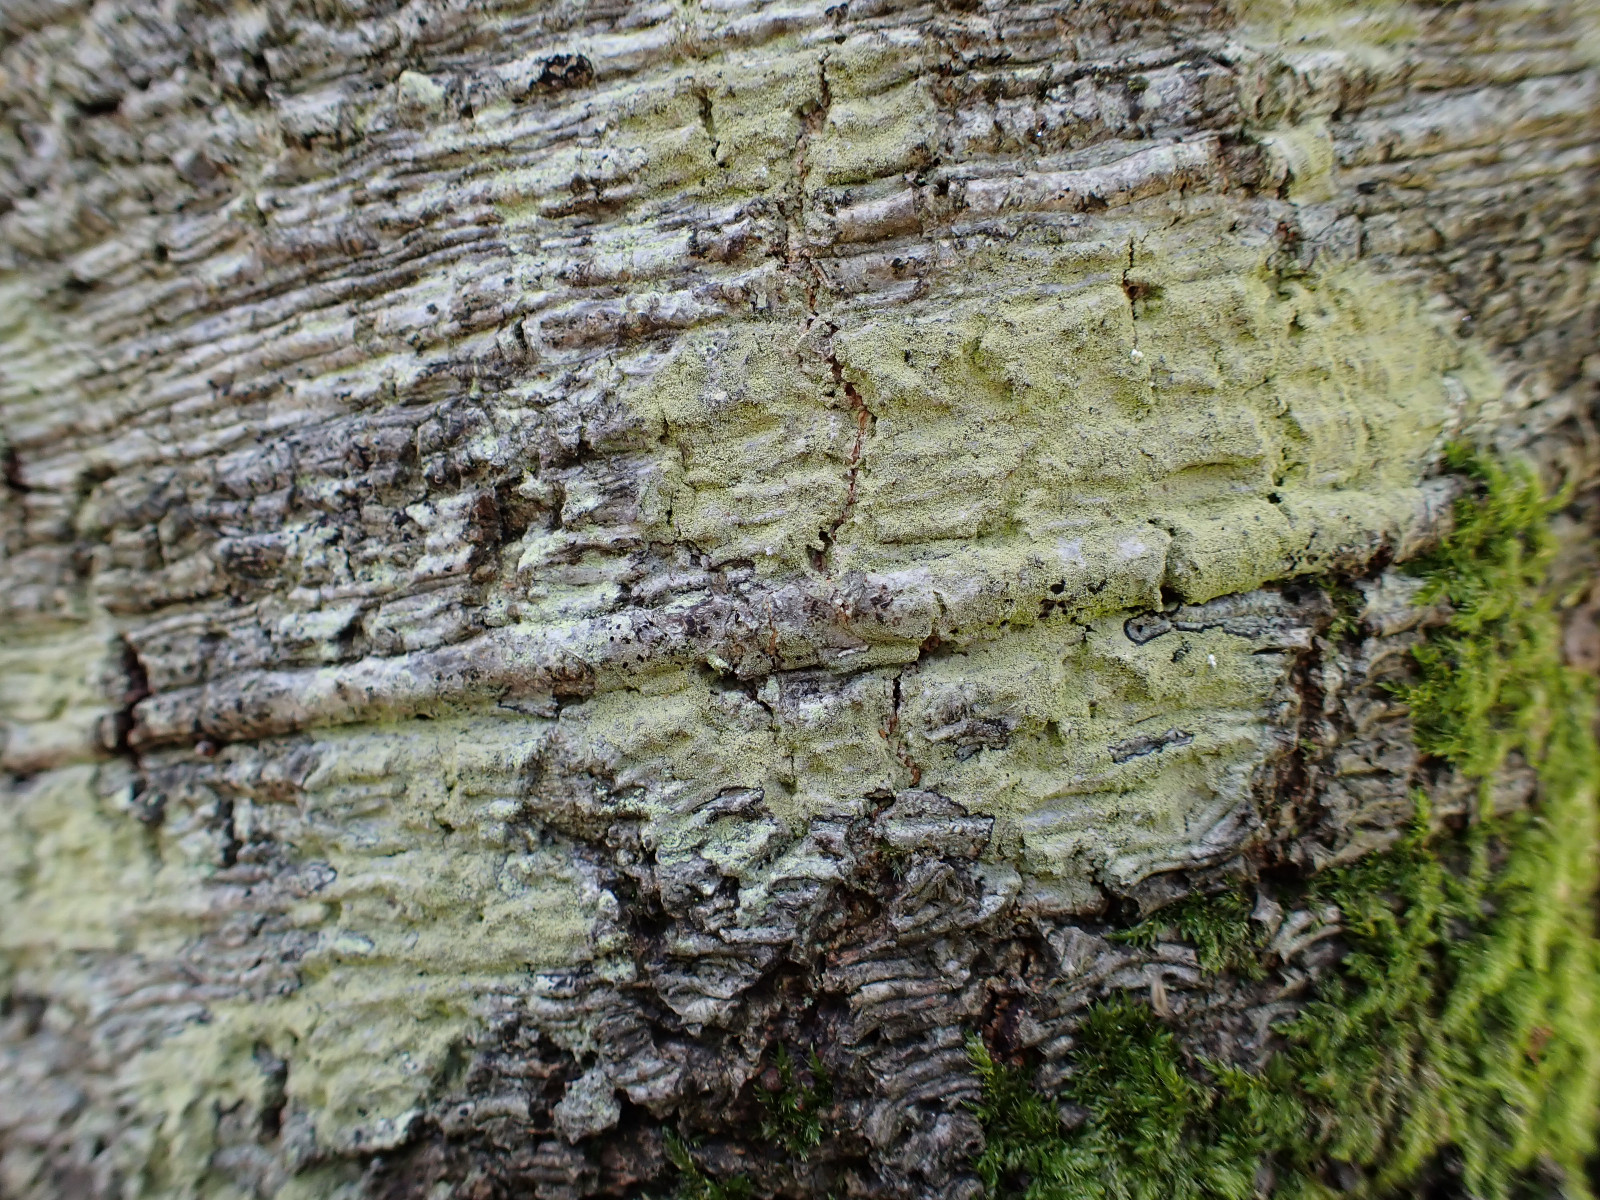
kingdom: Fungi
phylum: Ascomycota
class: Lecanoromycetes
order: Lecanorales
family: Lecanoraceae
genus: Pyrrhospora
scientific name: Pyrrhospora quernea
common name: almindelig rødskivelav
